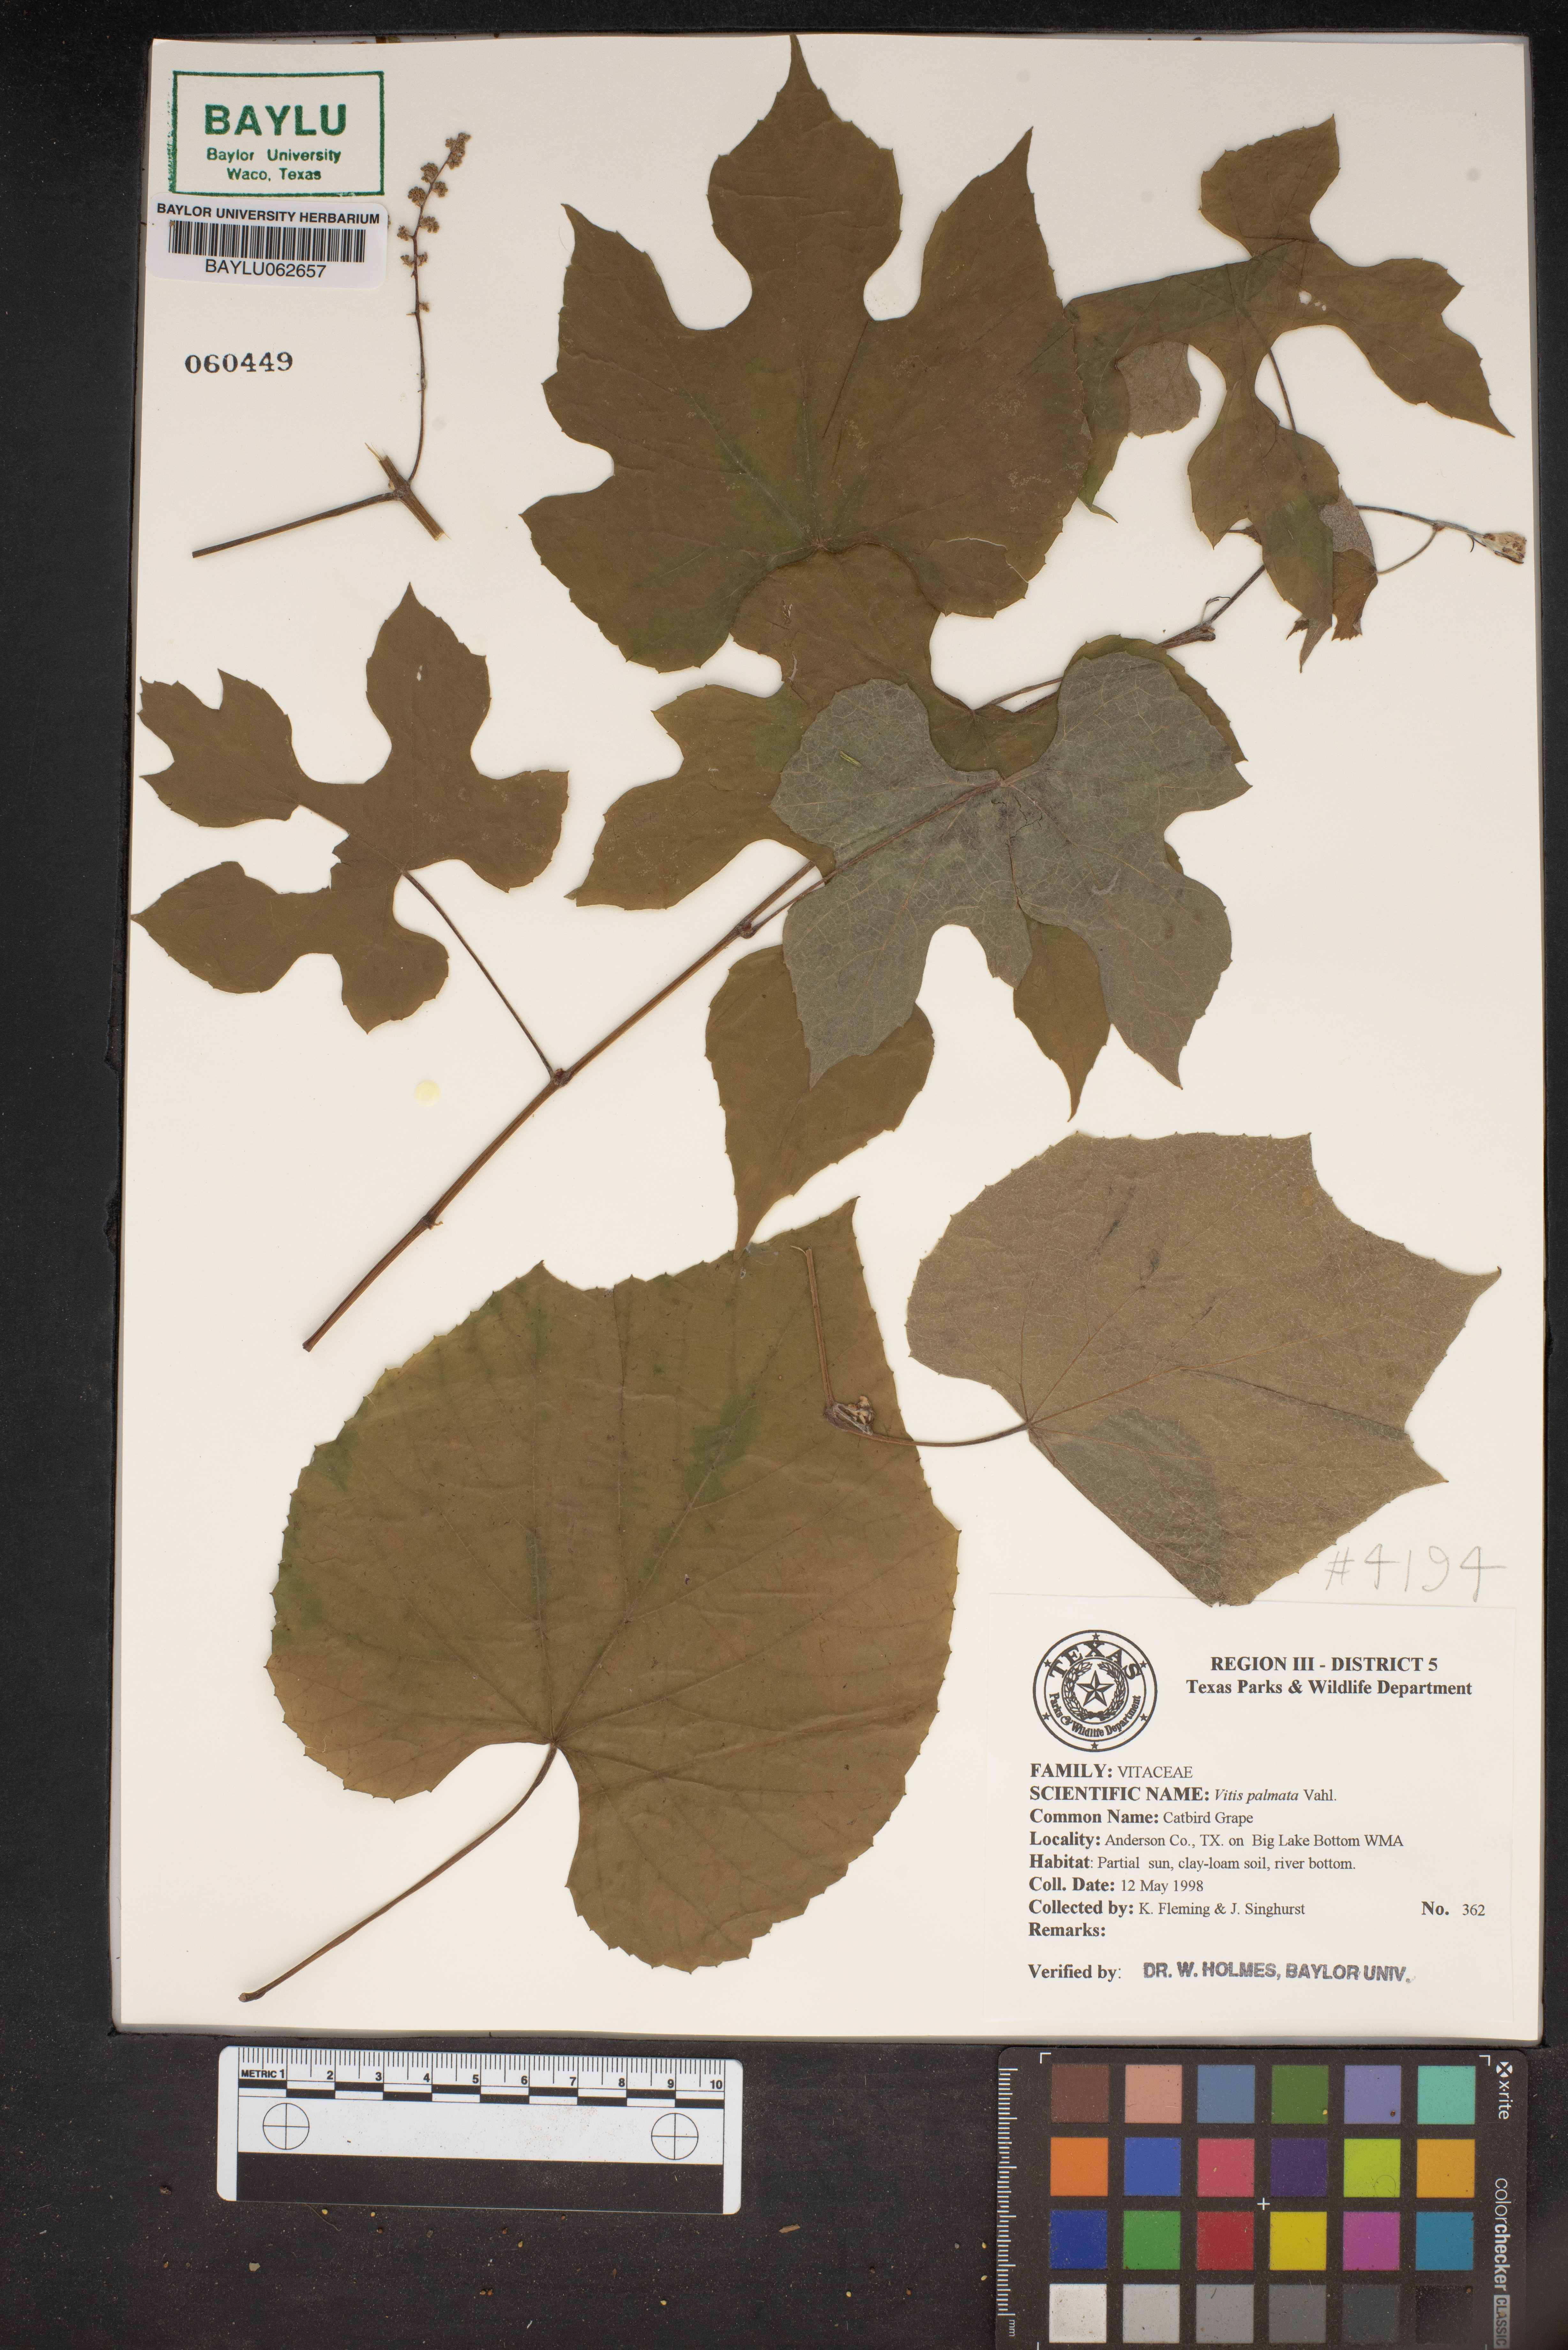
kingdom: Plantae
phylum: Tracheophyta
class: Magnoliopsida
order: Vitales
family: Vitaceae
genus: Vitis
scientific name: Vitis palmata
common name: Catbird grape
